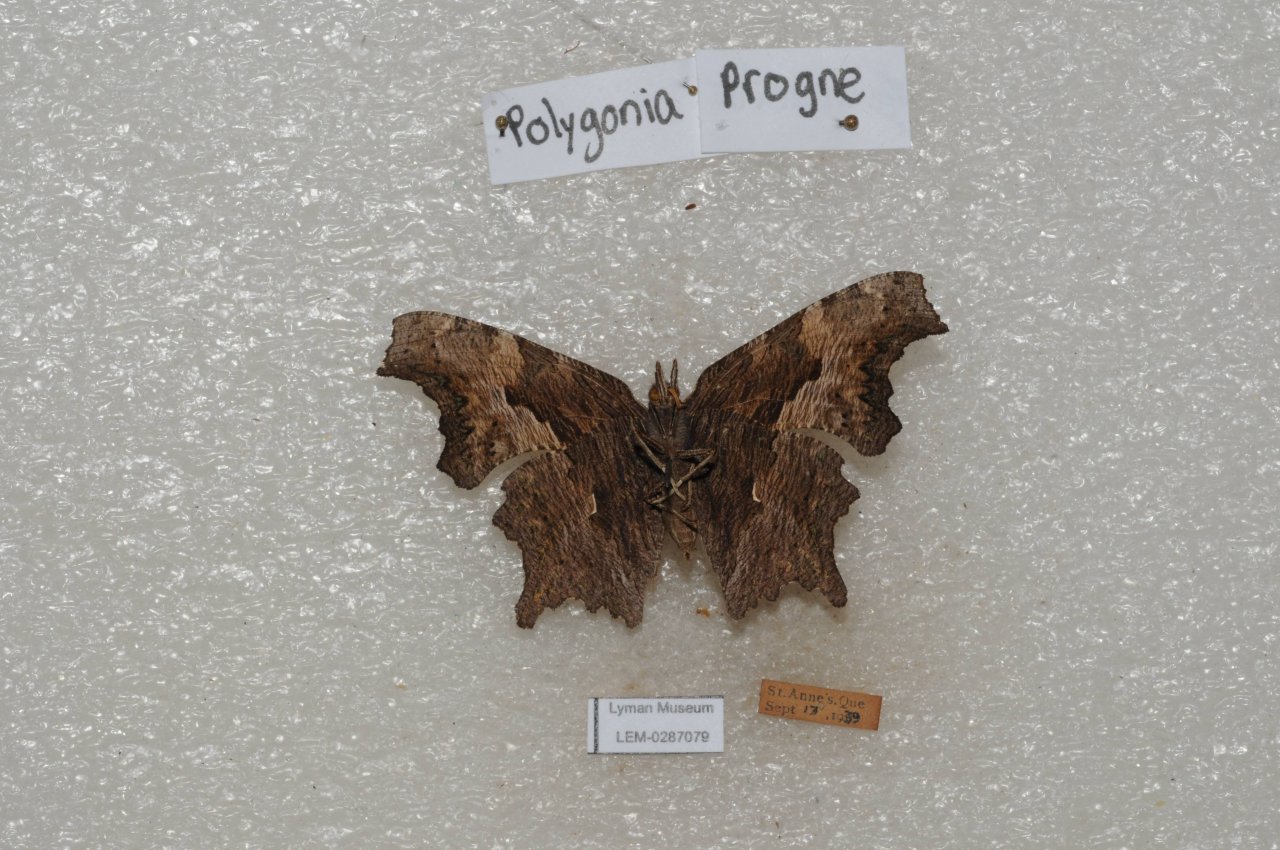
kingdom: Animalia
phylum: Arthropoda
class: Insecta
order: Lepidoptera
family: Nymphalidae
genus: Polygonia
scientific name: Polygonia progne
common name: Gray Comma
